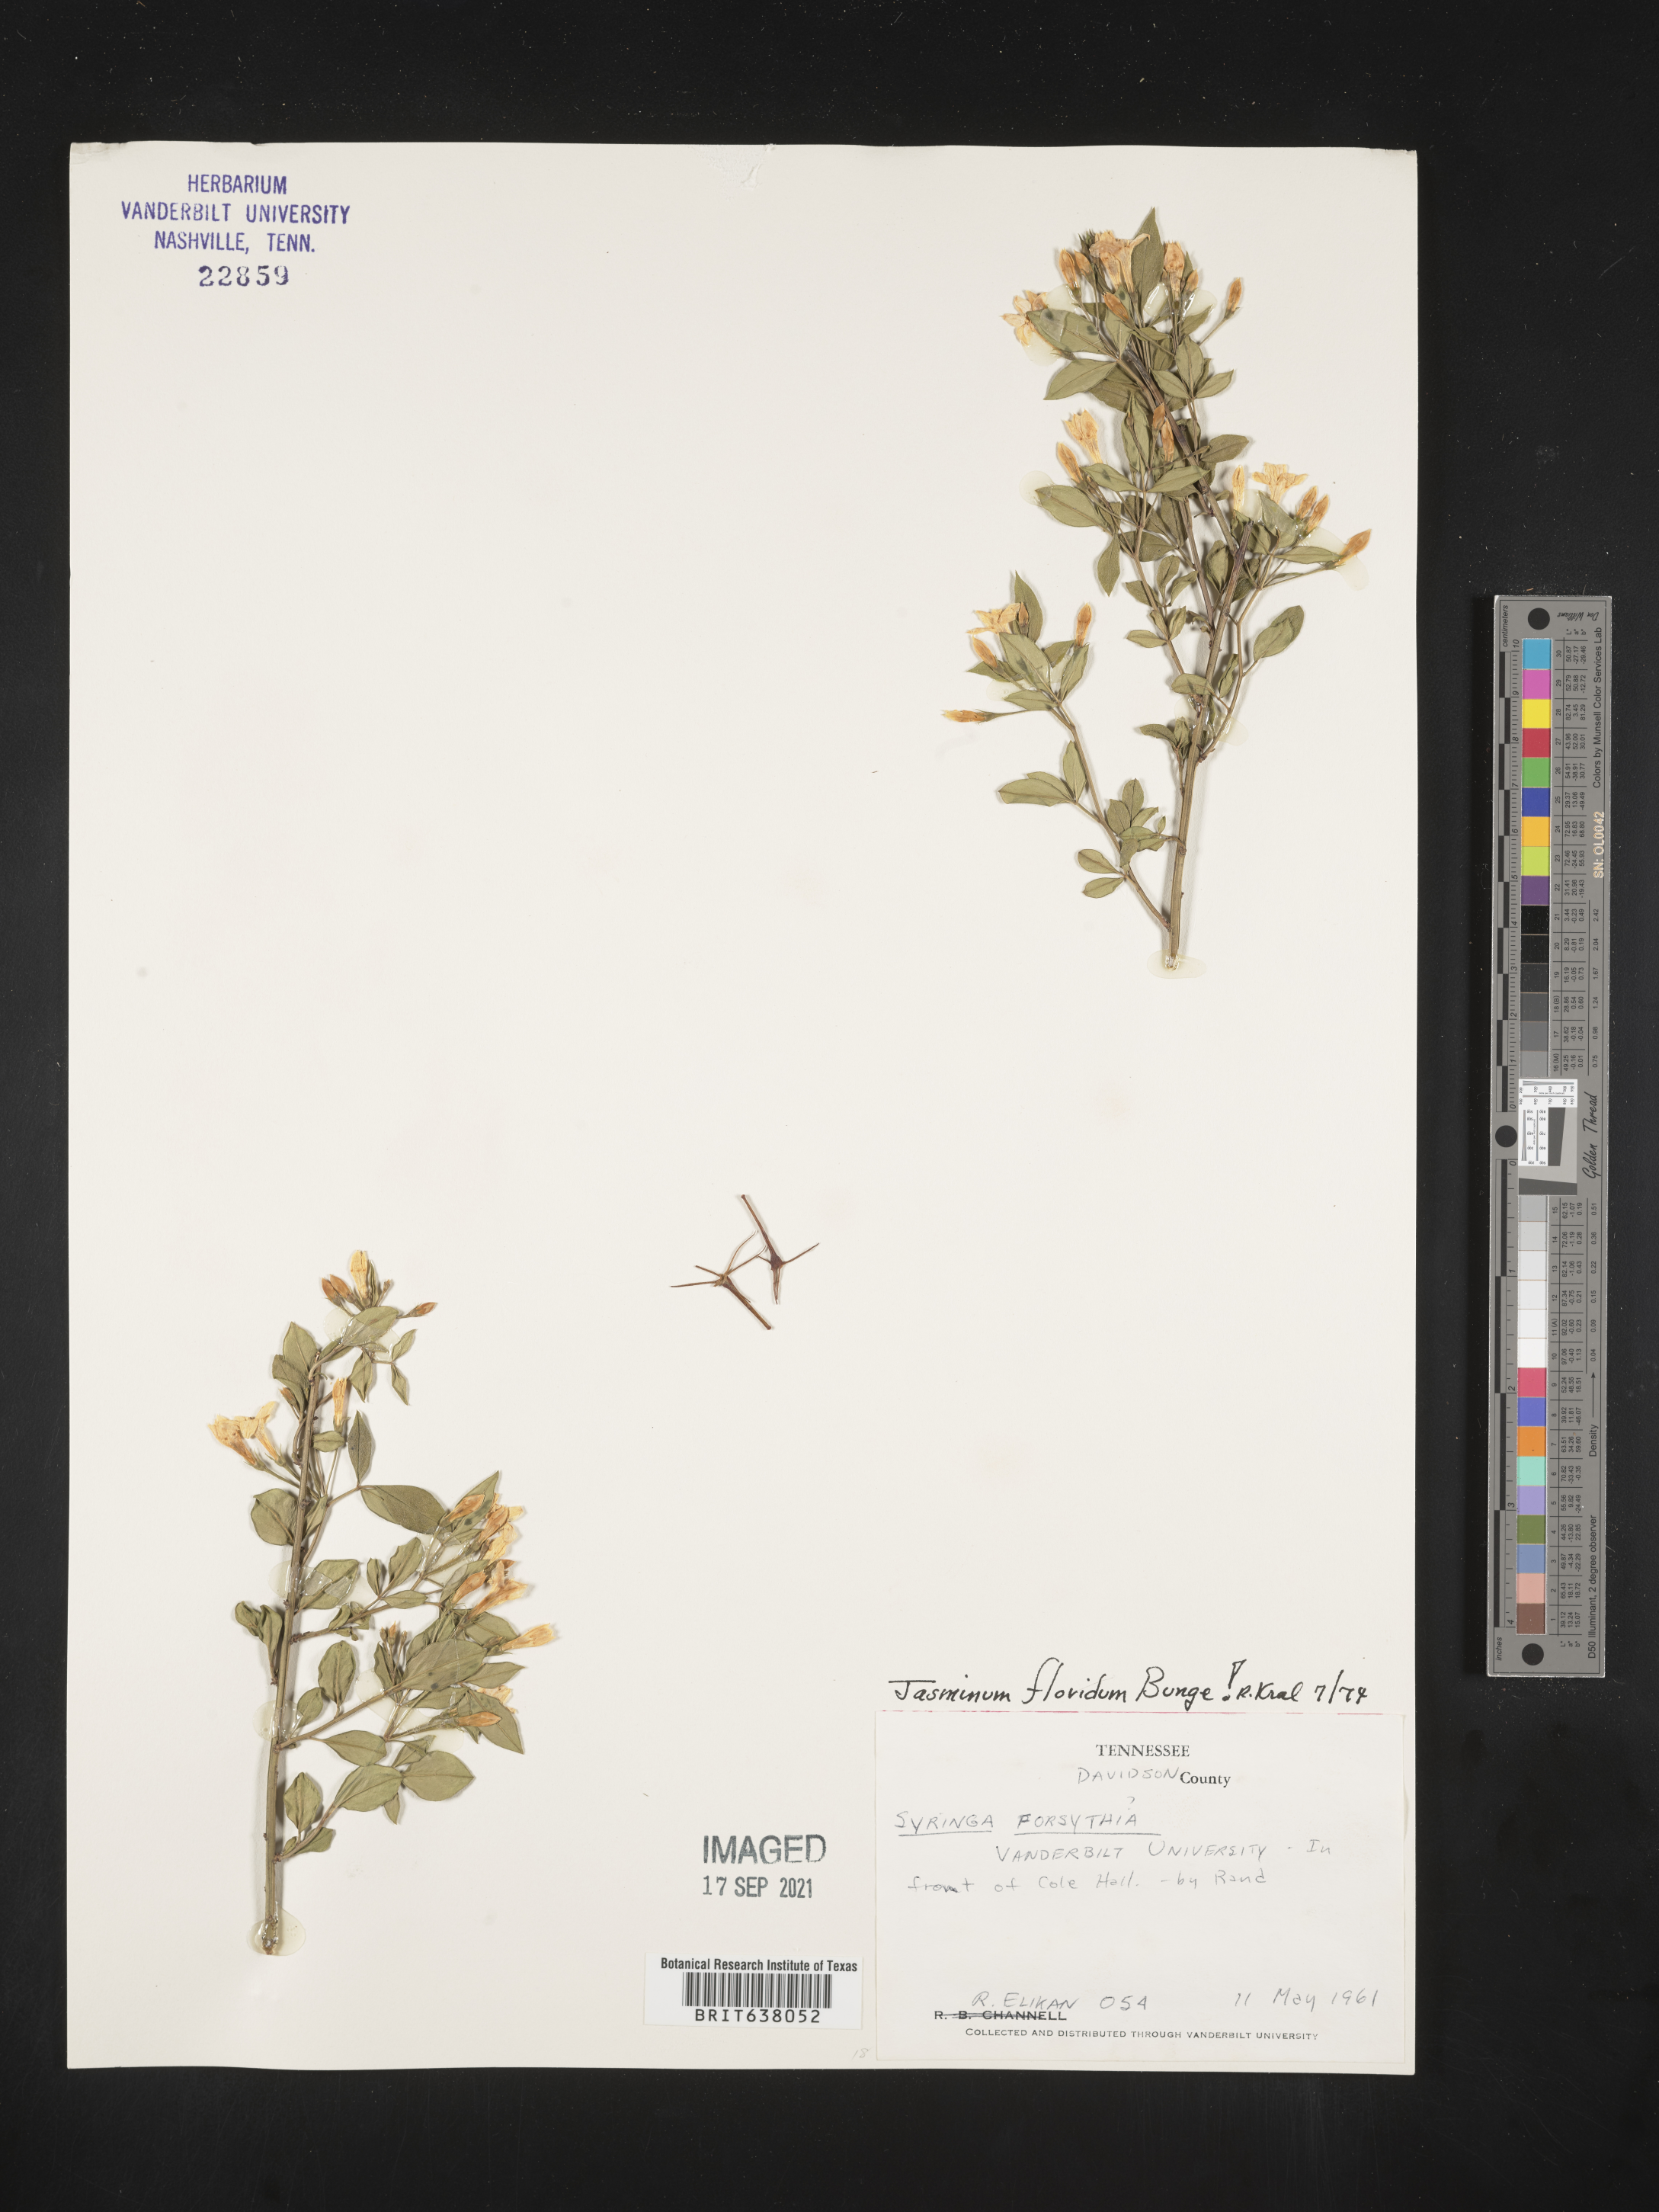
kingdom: Plantae
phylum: Tracheophyta
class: Magnoliopsida
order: Lamiales
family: Oleaceae
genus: Jasminum
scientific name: Jasminum
